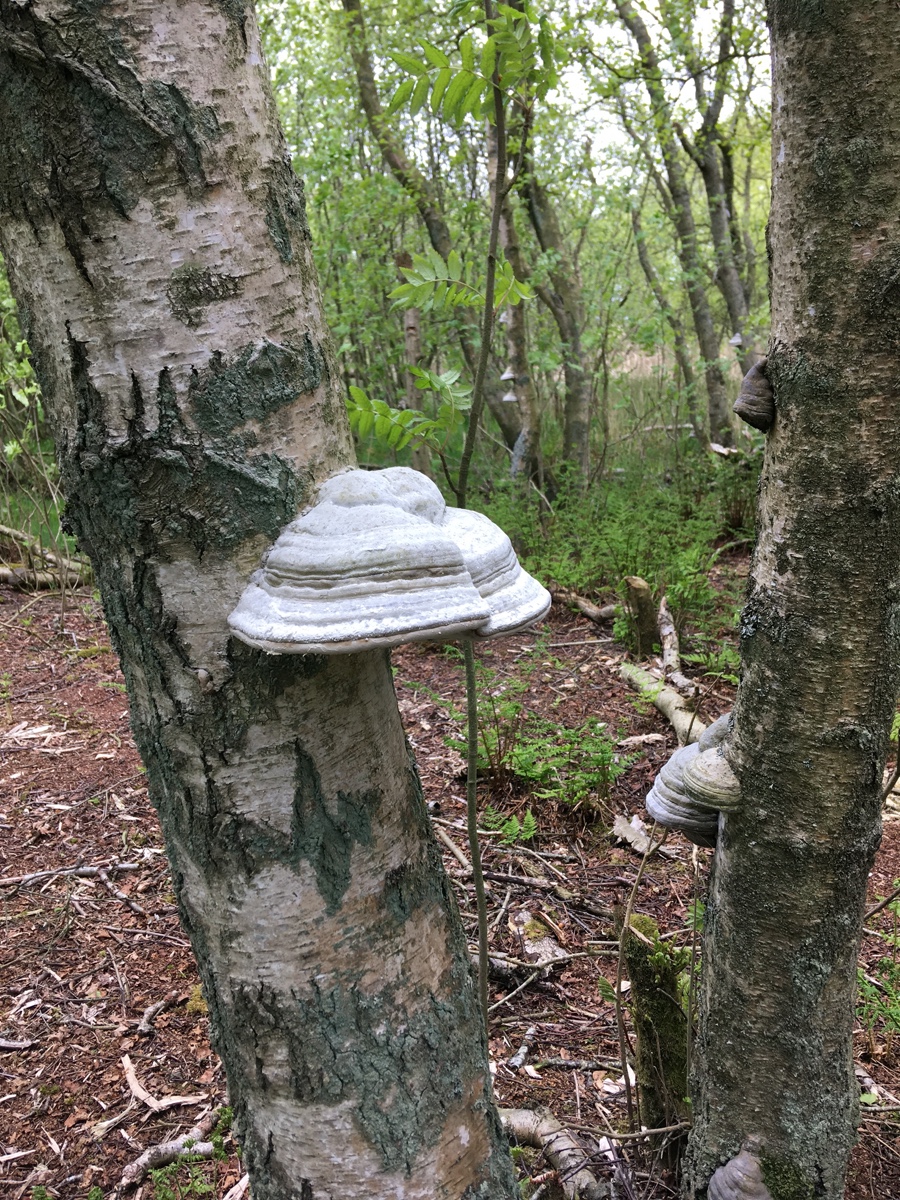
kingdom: Fungi
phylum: Basidiomycota
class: Agaricomycetes
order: Polyporales
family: Polyporaceae
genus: Fomes
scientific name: Fomes fomentarius
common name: tøndersvamp
